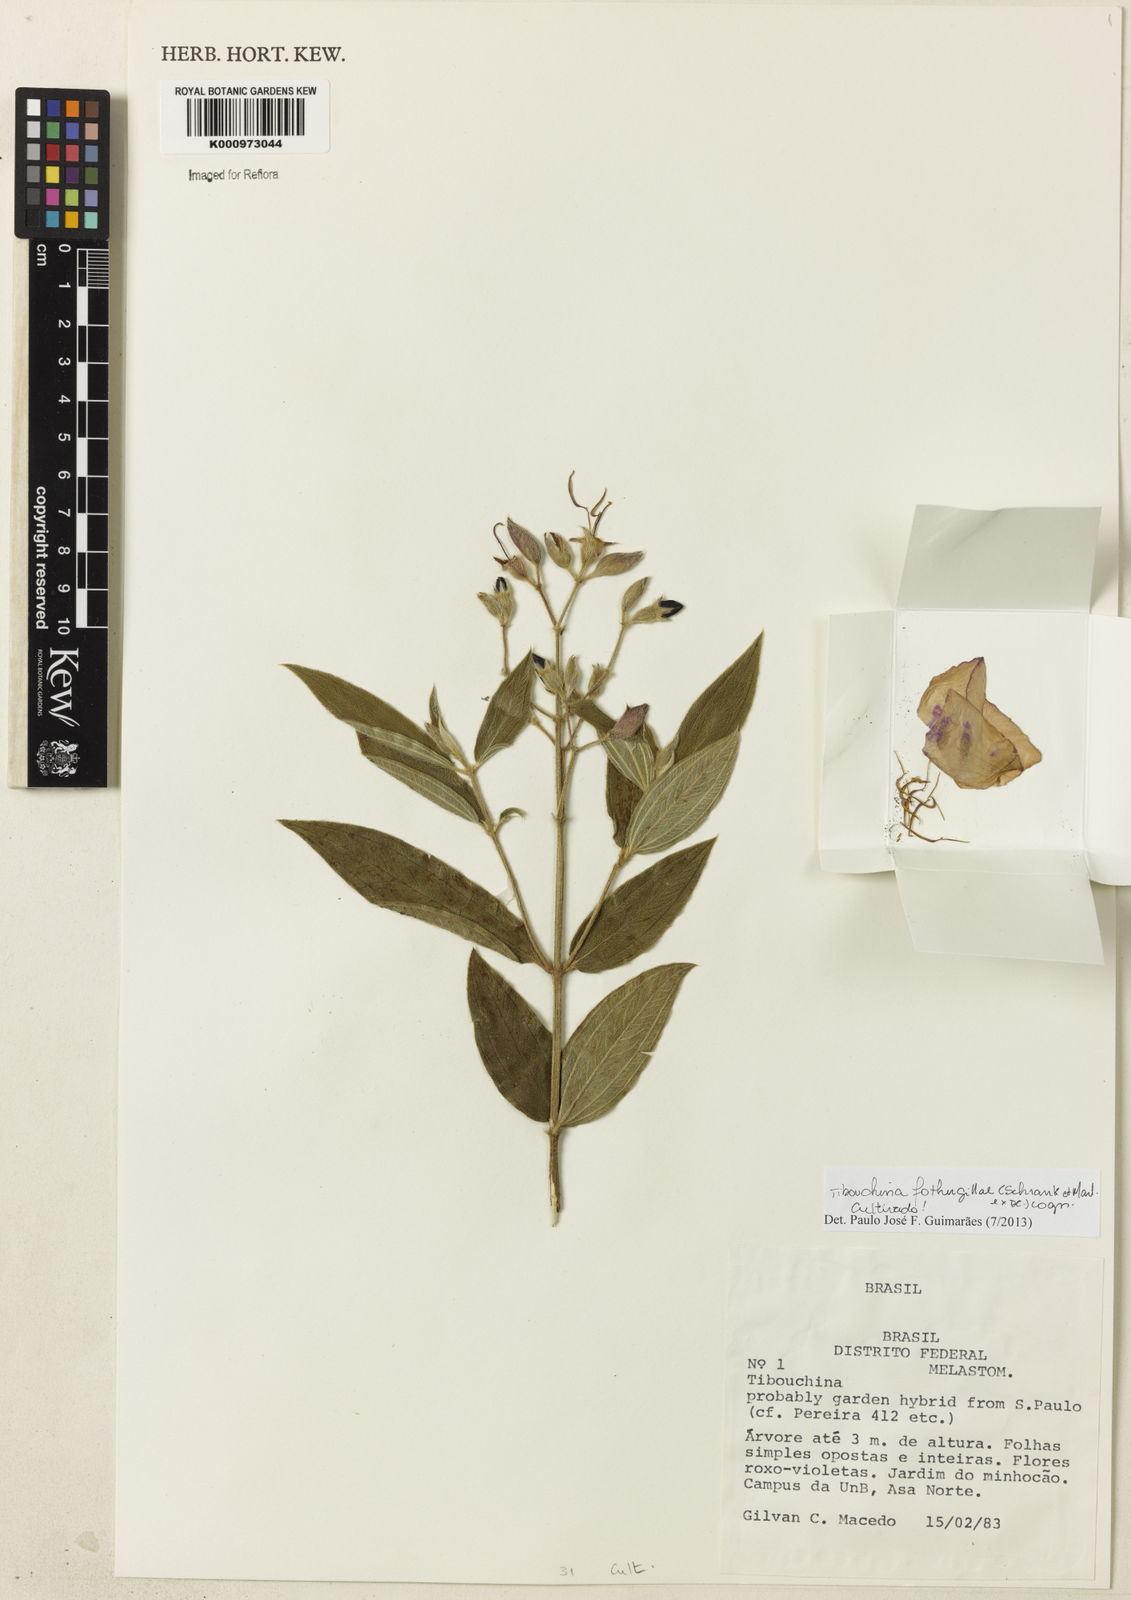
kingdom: Plantae
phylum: Tracheophyta
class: Magnoliopsida
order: Myrtales
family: Melastomataceae
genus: Pleroma
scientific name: Pleroma fothergillae
